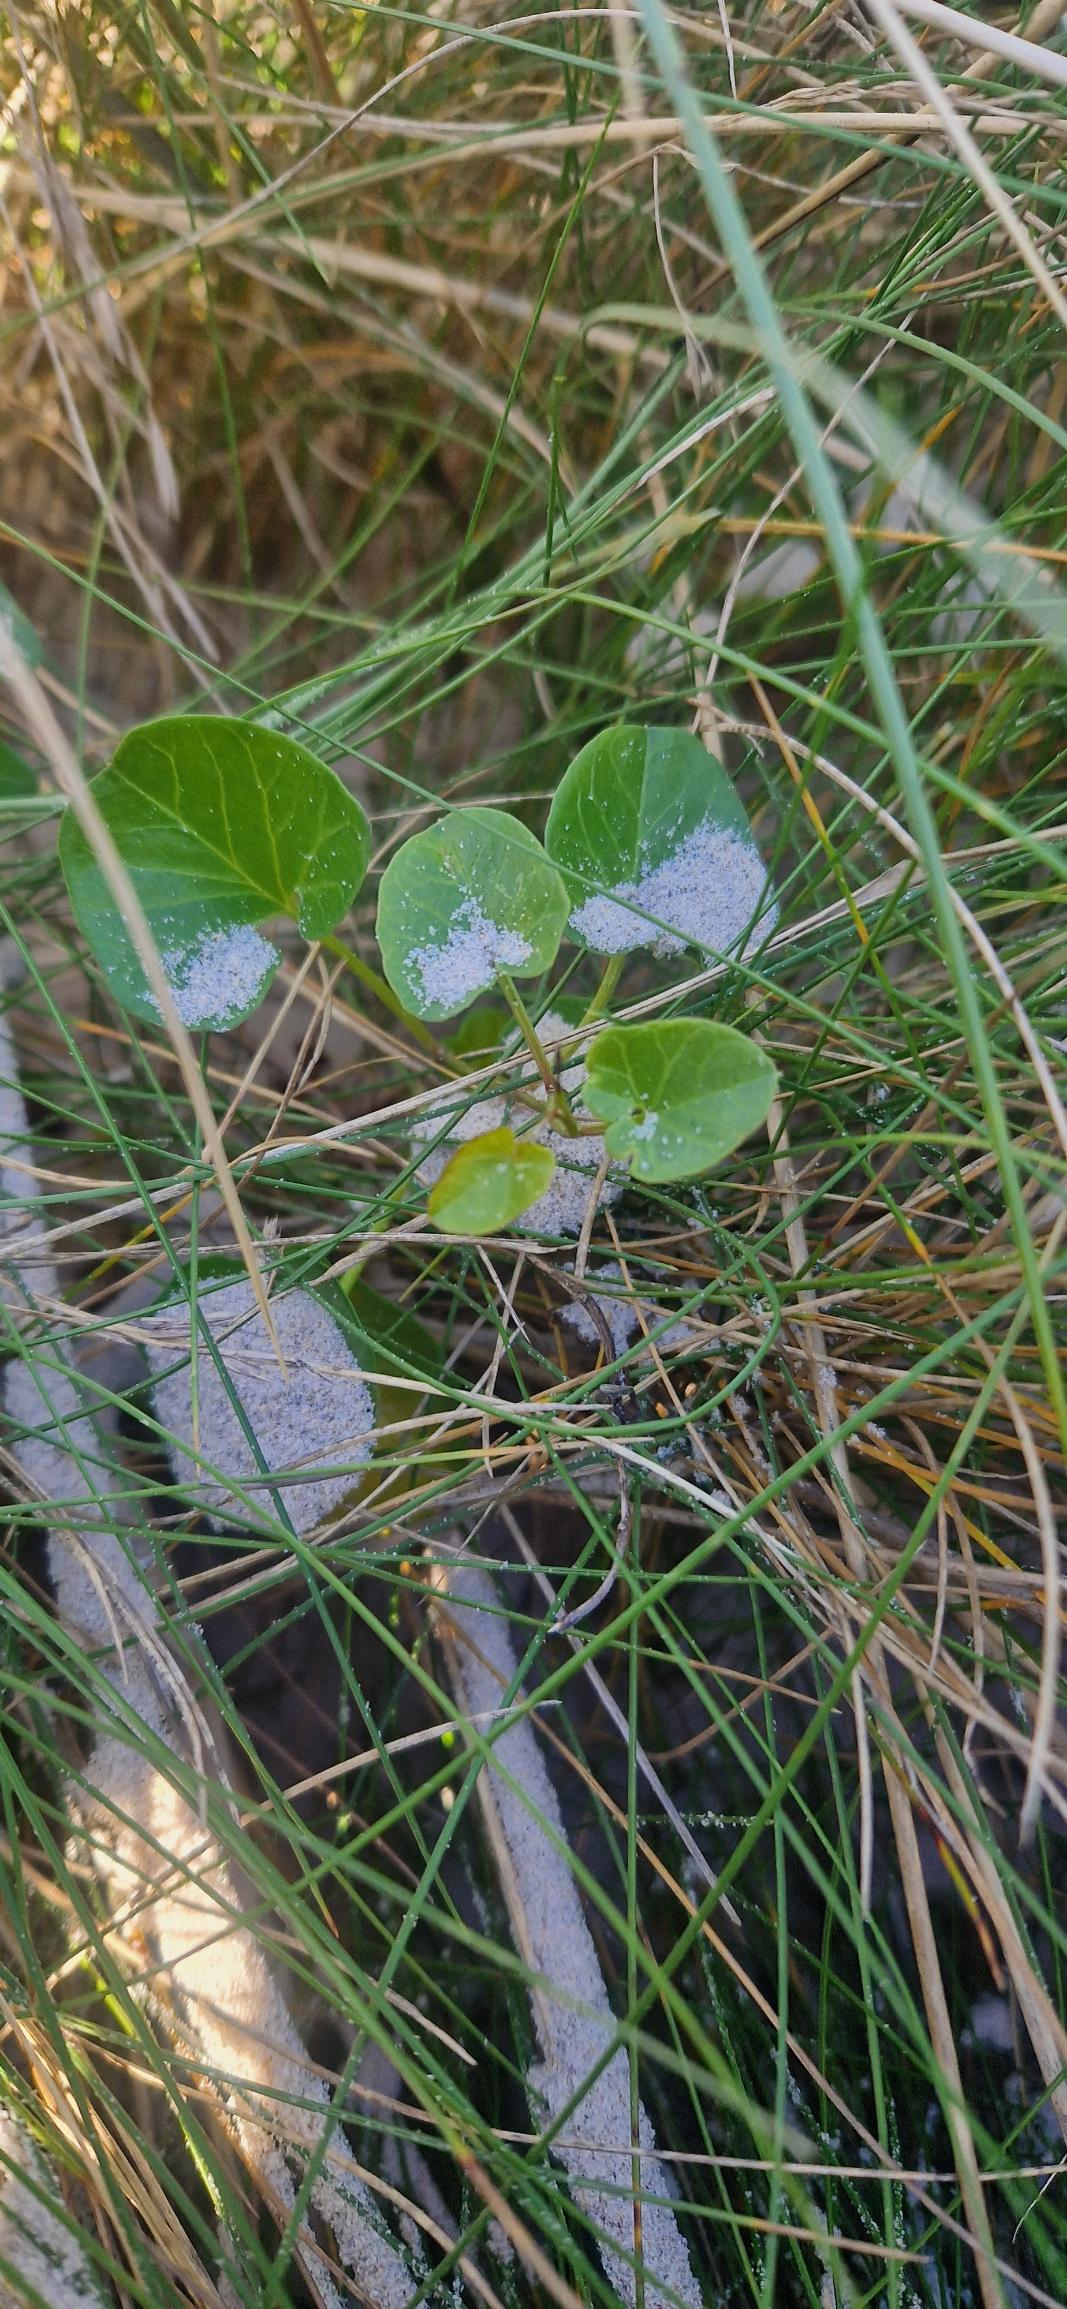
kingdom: Plantae
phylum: Tracheophyta
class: Magnoliopsida
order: Solanales
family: Convolvulaceae
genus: Calystegia
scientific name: Calystegia soldanella
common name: Strand-snerle
